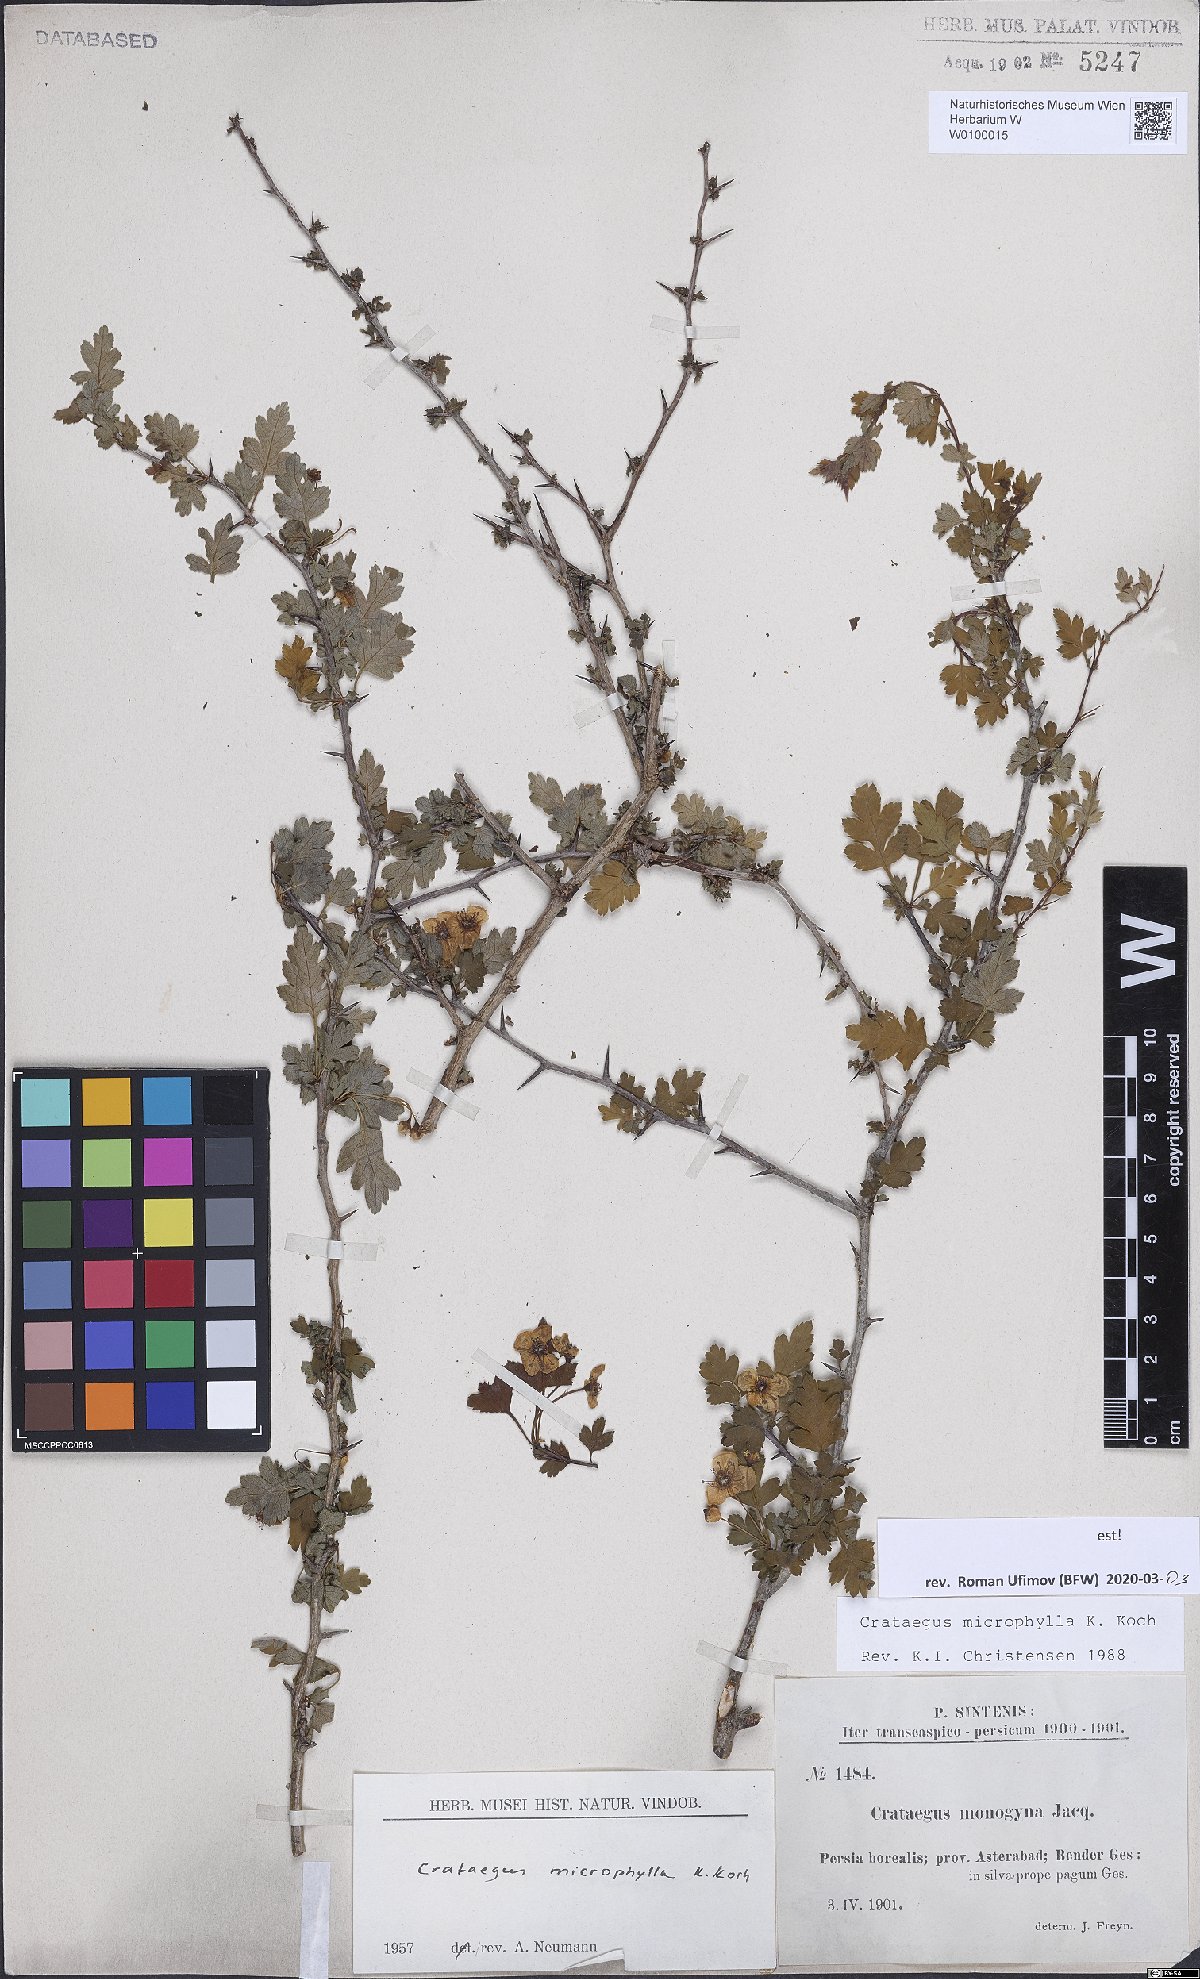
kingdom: Plantae
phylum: Tracheophyta
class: Magnoliopsida
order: Rosales
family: Rosaceae
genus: Crataegus
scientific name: Crataegus microphylla
